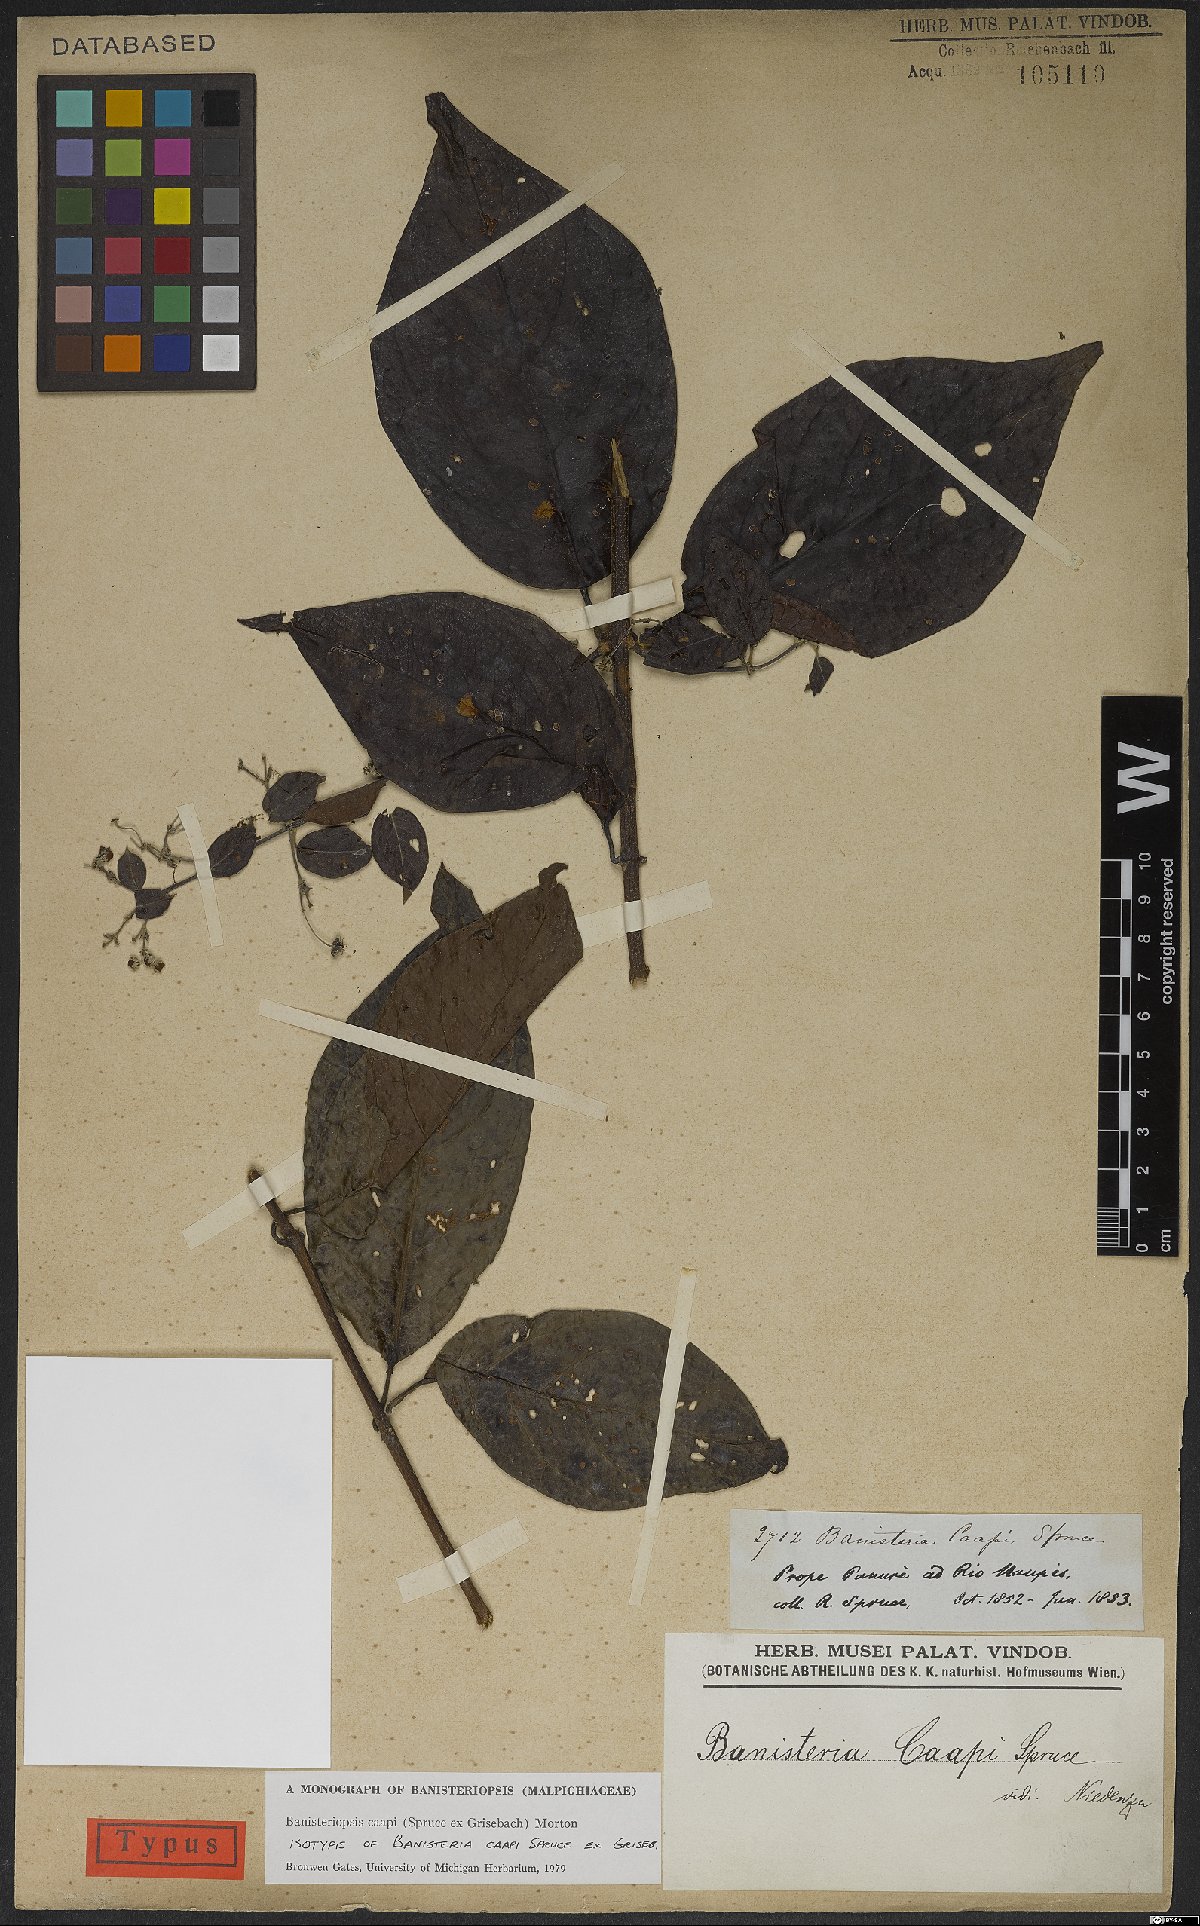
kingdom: Plantae
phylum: Tracheophyta
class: Magnoliopsida
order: Malpighiales
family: Malpighiaceae
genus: Banisteriopsis
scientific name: Banisteriopsis caapi
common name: Soulvine
